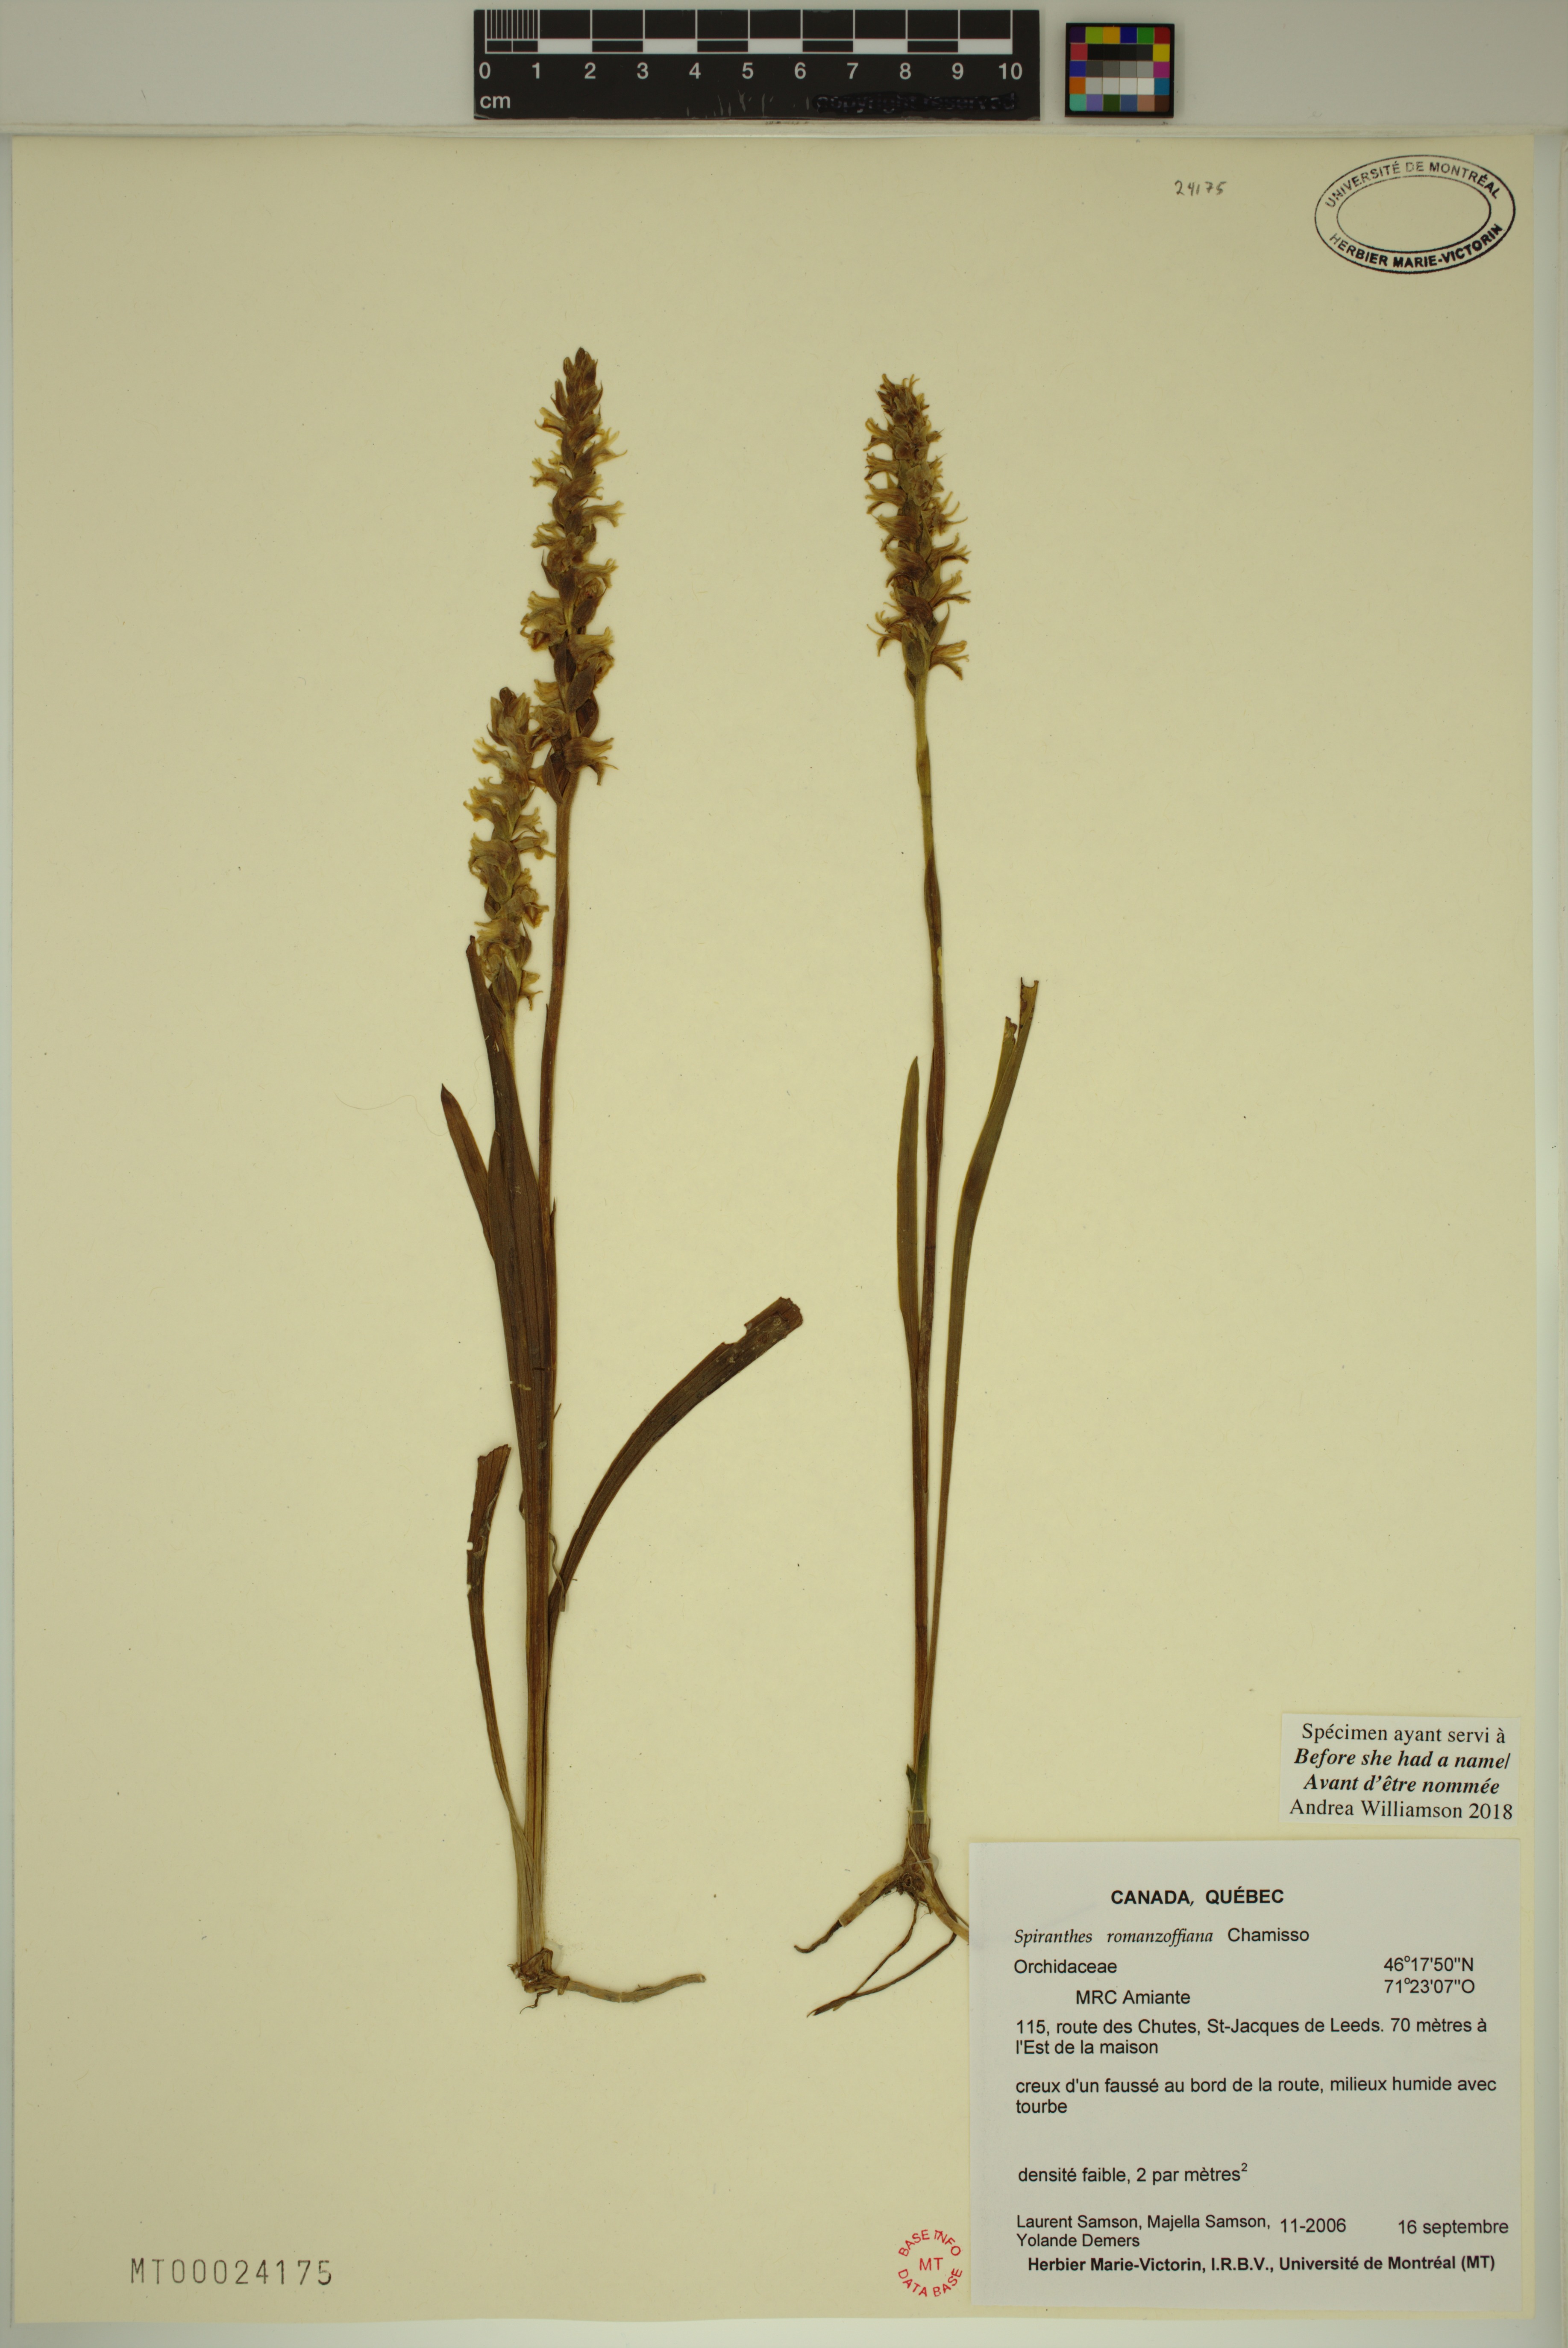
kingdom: Plantae
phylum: Tracheophyta
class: Liliopsida
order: Asparagales
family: Orchidaceae
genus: Spiranthes
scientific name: Spiranthes romanzoffiana
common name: Irish lady's-tresses
